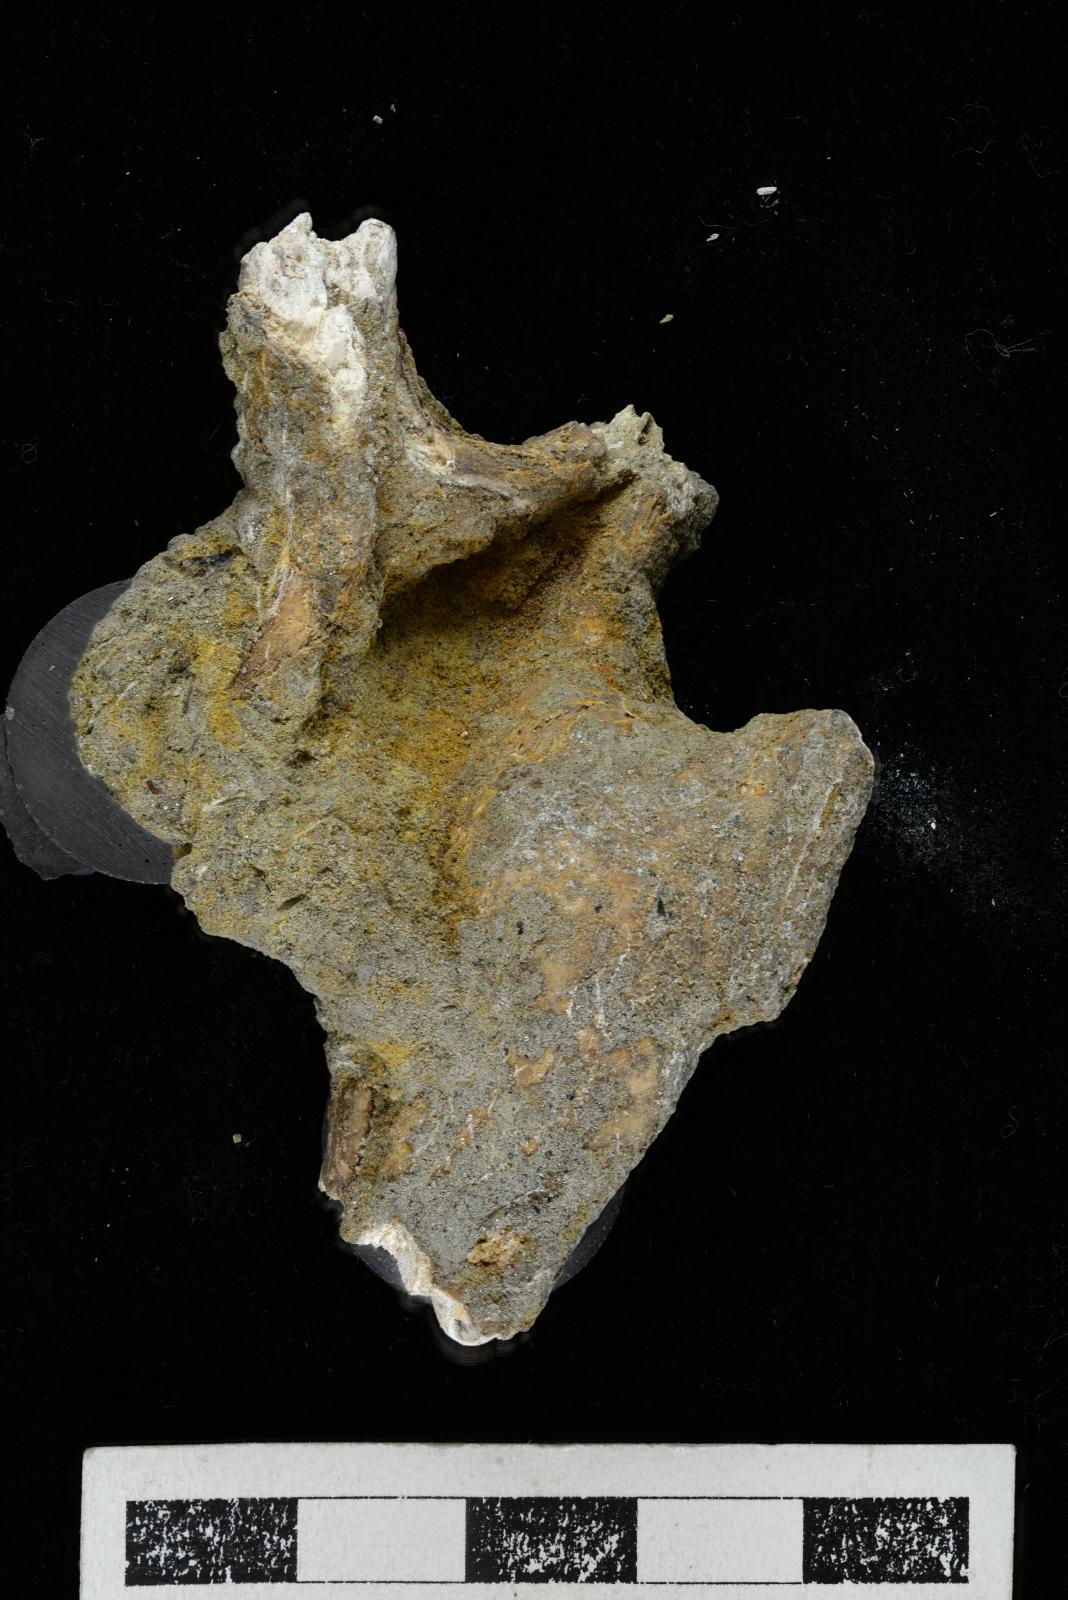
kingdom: Animalia
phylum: Mollusca
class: Gastropoda
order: Littorinimorpha
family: Aporrhaidae
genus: Tessarolax
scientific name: Tessarolax incrustata
